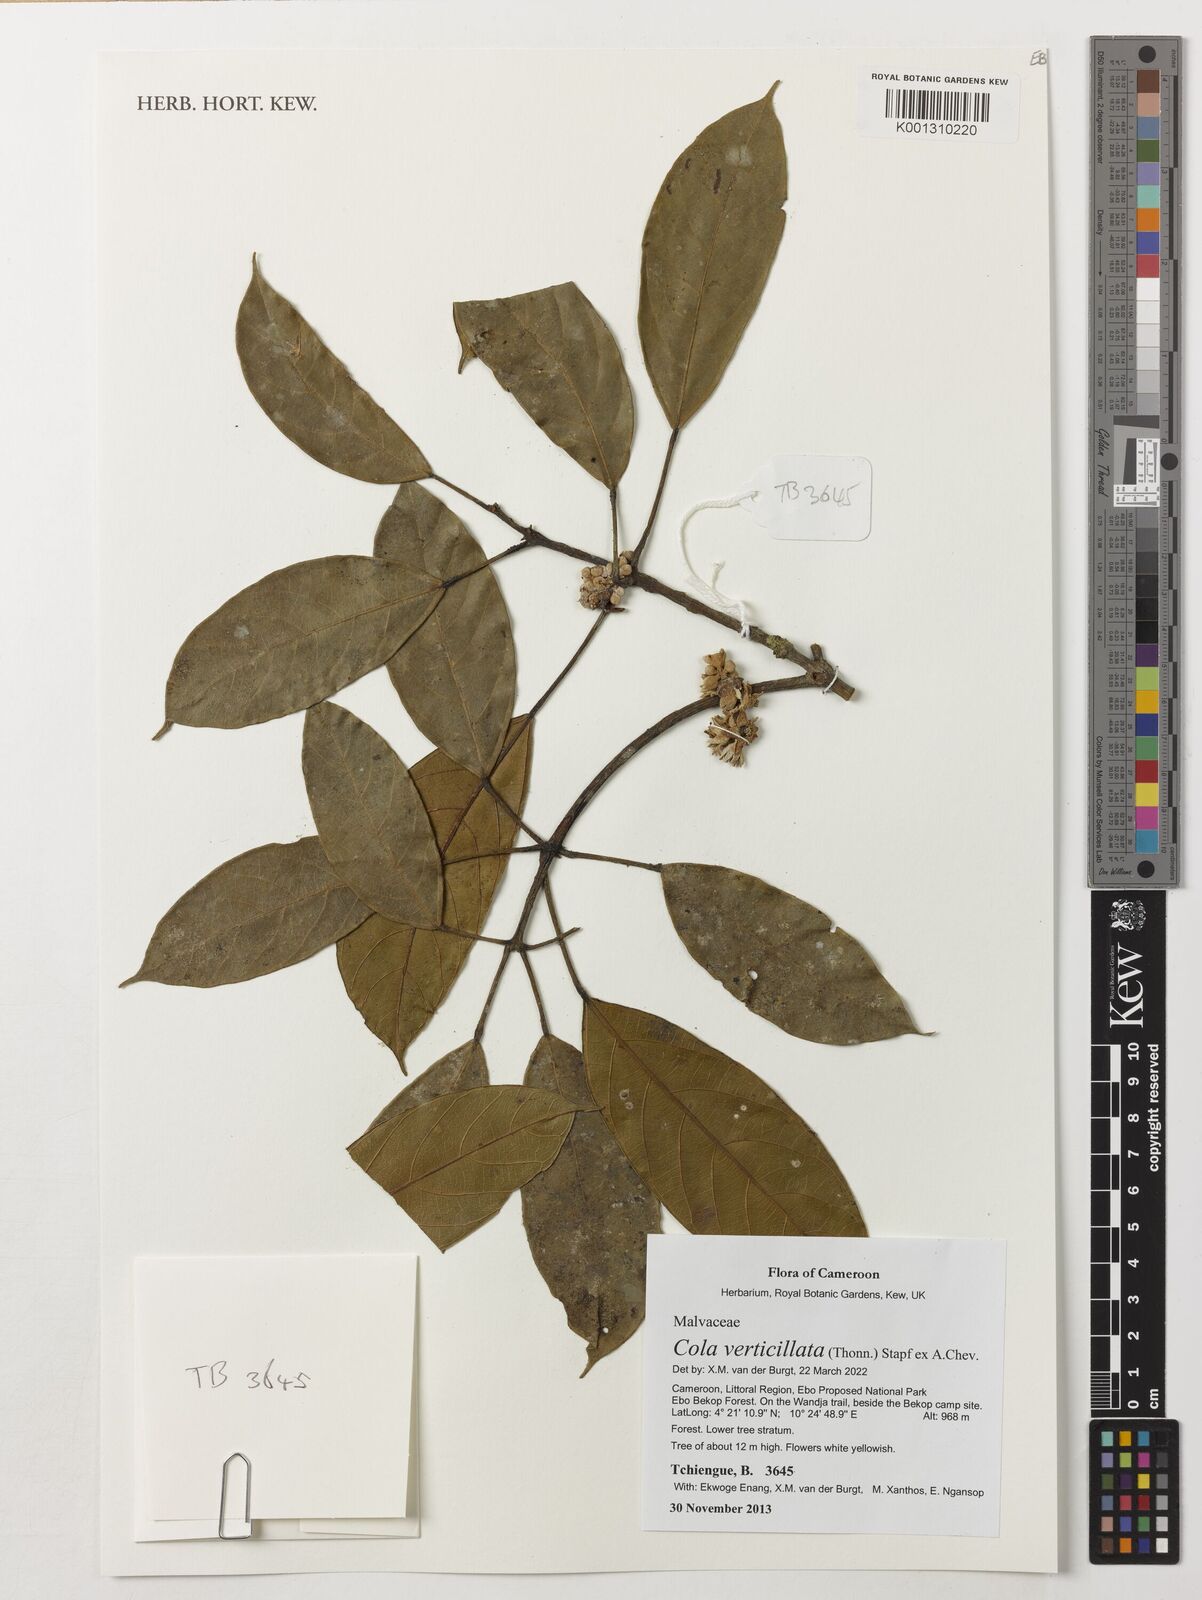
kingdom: Plantae
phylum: Tracheophyta
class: Magnoliopsida
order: Malvales
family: Malvaceae
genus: Cola
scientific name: Cola verticillata
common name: Owé cola
